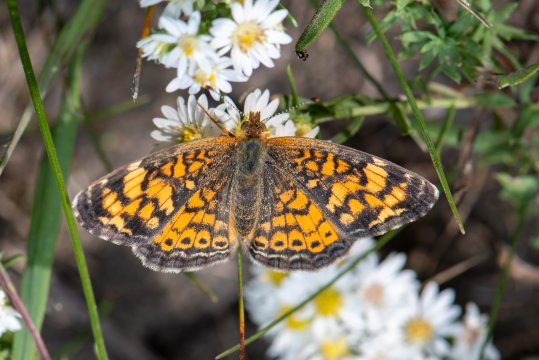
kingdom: Animalia
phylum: Arthropoda
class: Insecta
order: Lepidoptera
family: Nymphalidae
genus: Phyciodes
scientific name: Phyciodes tharos
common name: Pearl Crescent
